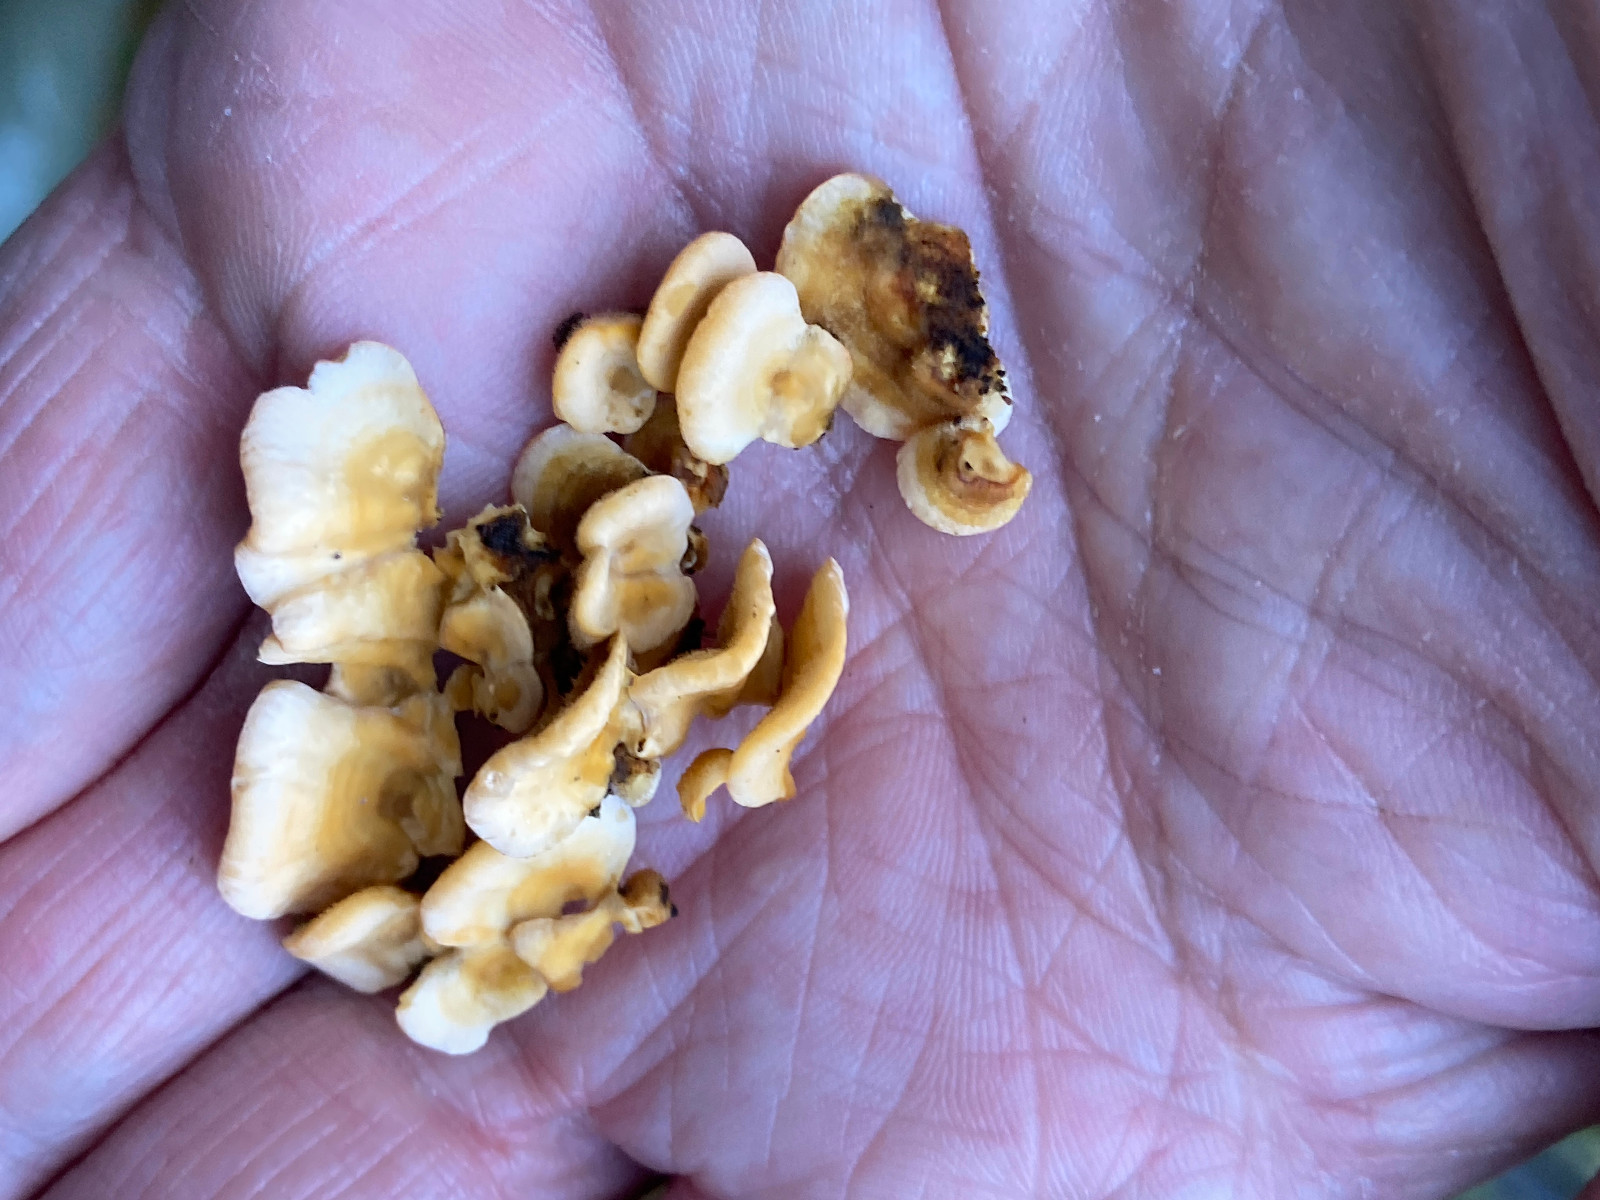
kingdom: Fungi
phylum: Basidiomycota
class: Agaricomycetes
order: Russulales
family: Stereaceae
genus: Stereum
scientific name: Stereum hirsutum
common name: håret lædersvamp
